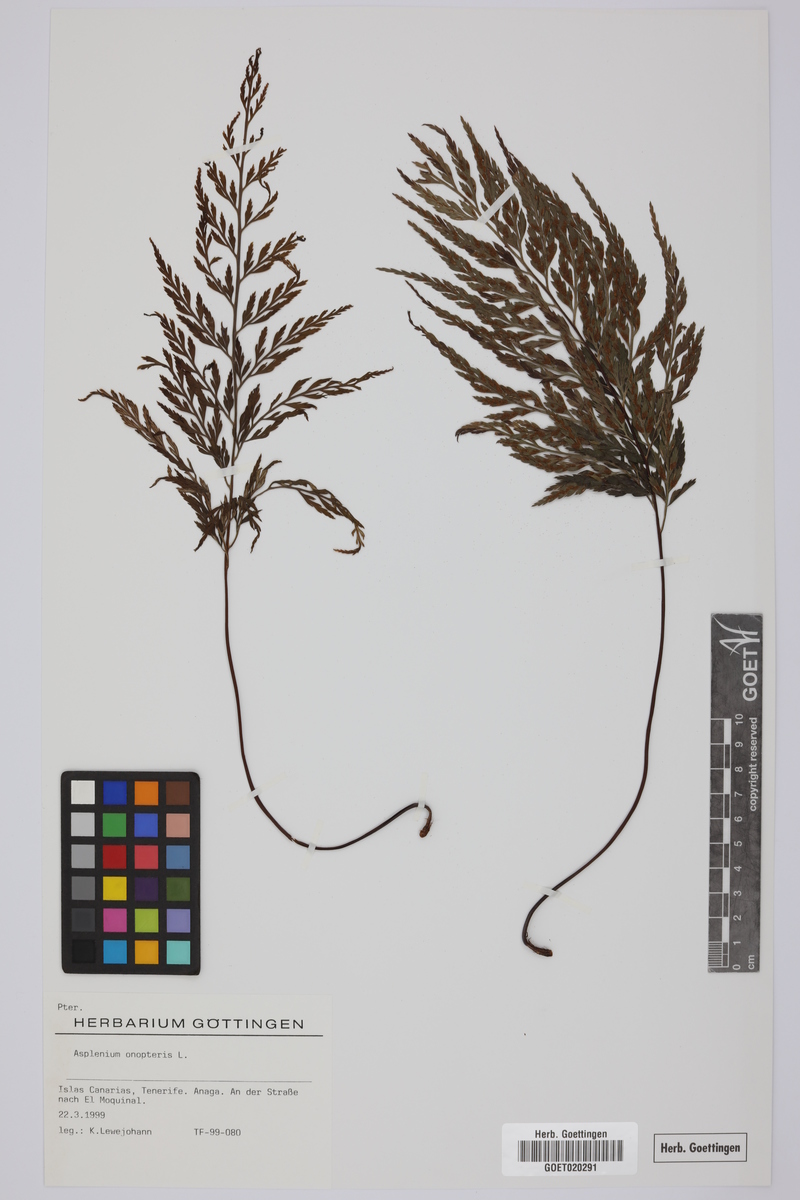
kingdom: Plantae
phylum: Tracheophyta
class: Polypodiopsida
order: Polypodiales
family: Aspleniaceae
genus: Asplenium
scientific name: Asplenium onopteris
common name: Irish spleenwort
